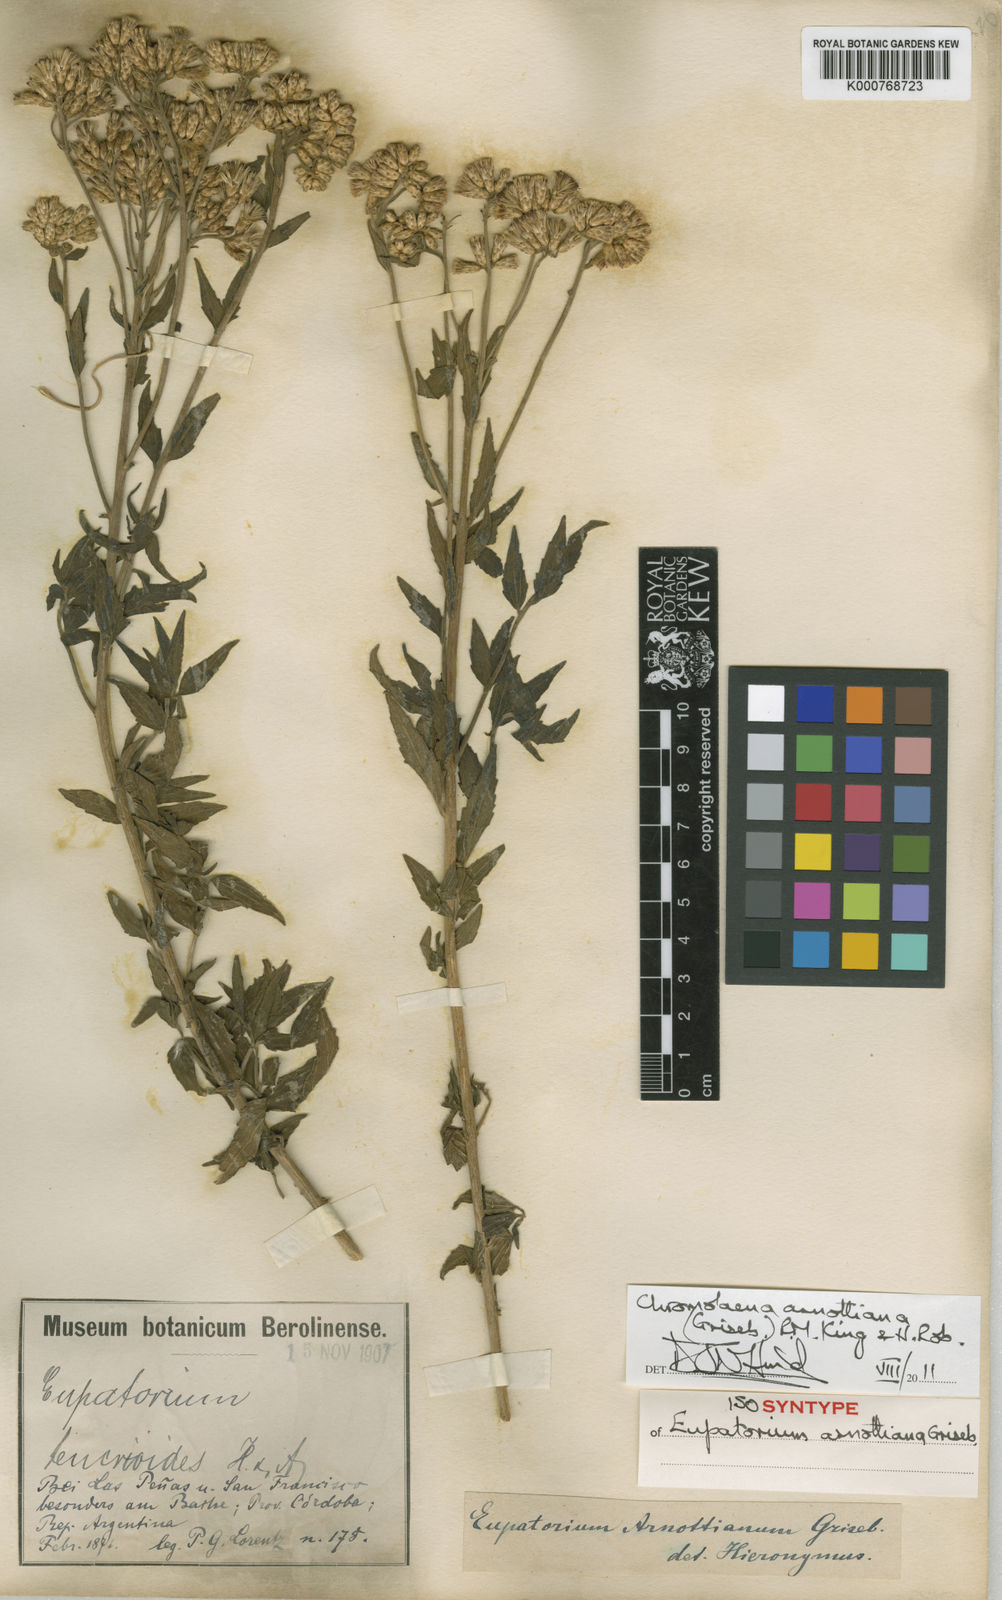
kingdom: Plantae
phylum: Tracheophyta
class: Magnoliopsida
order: Asterales
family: Asteraceae
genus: Chromolaena
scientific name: Chromolaena arnottiana
